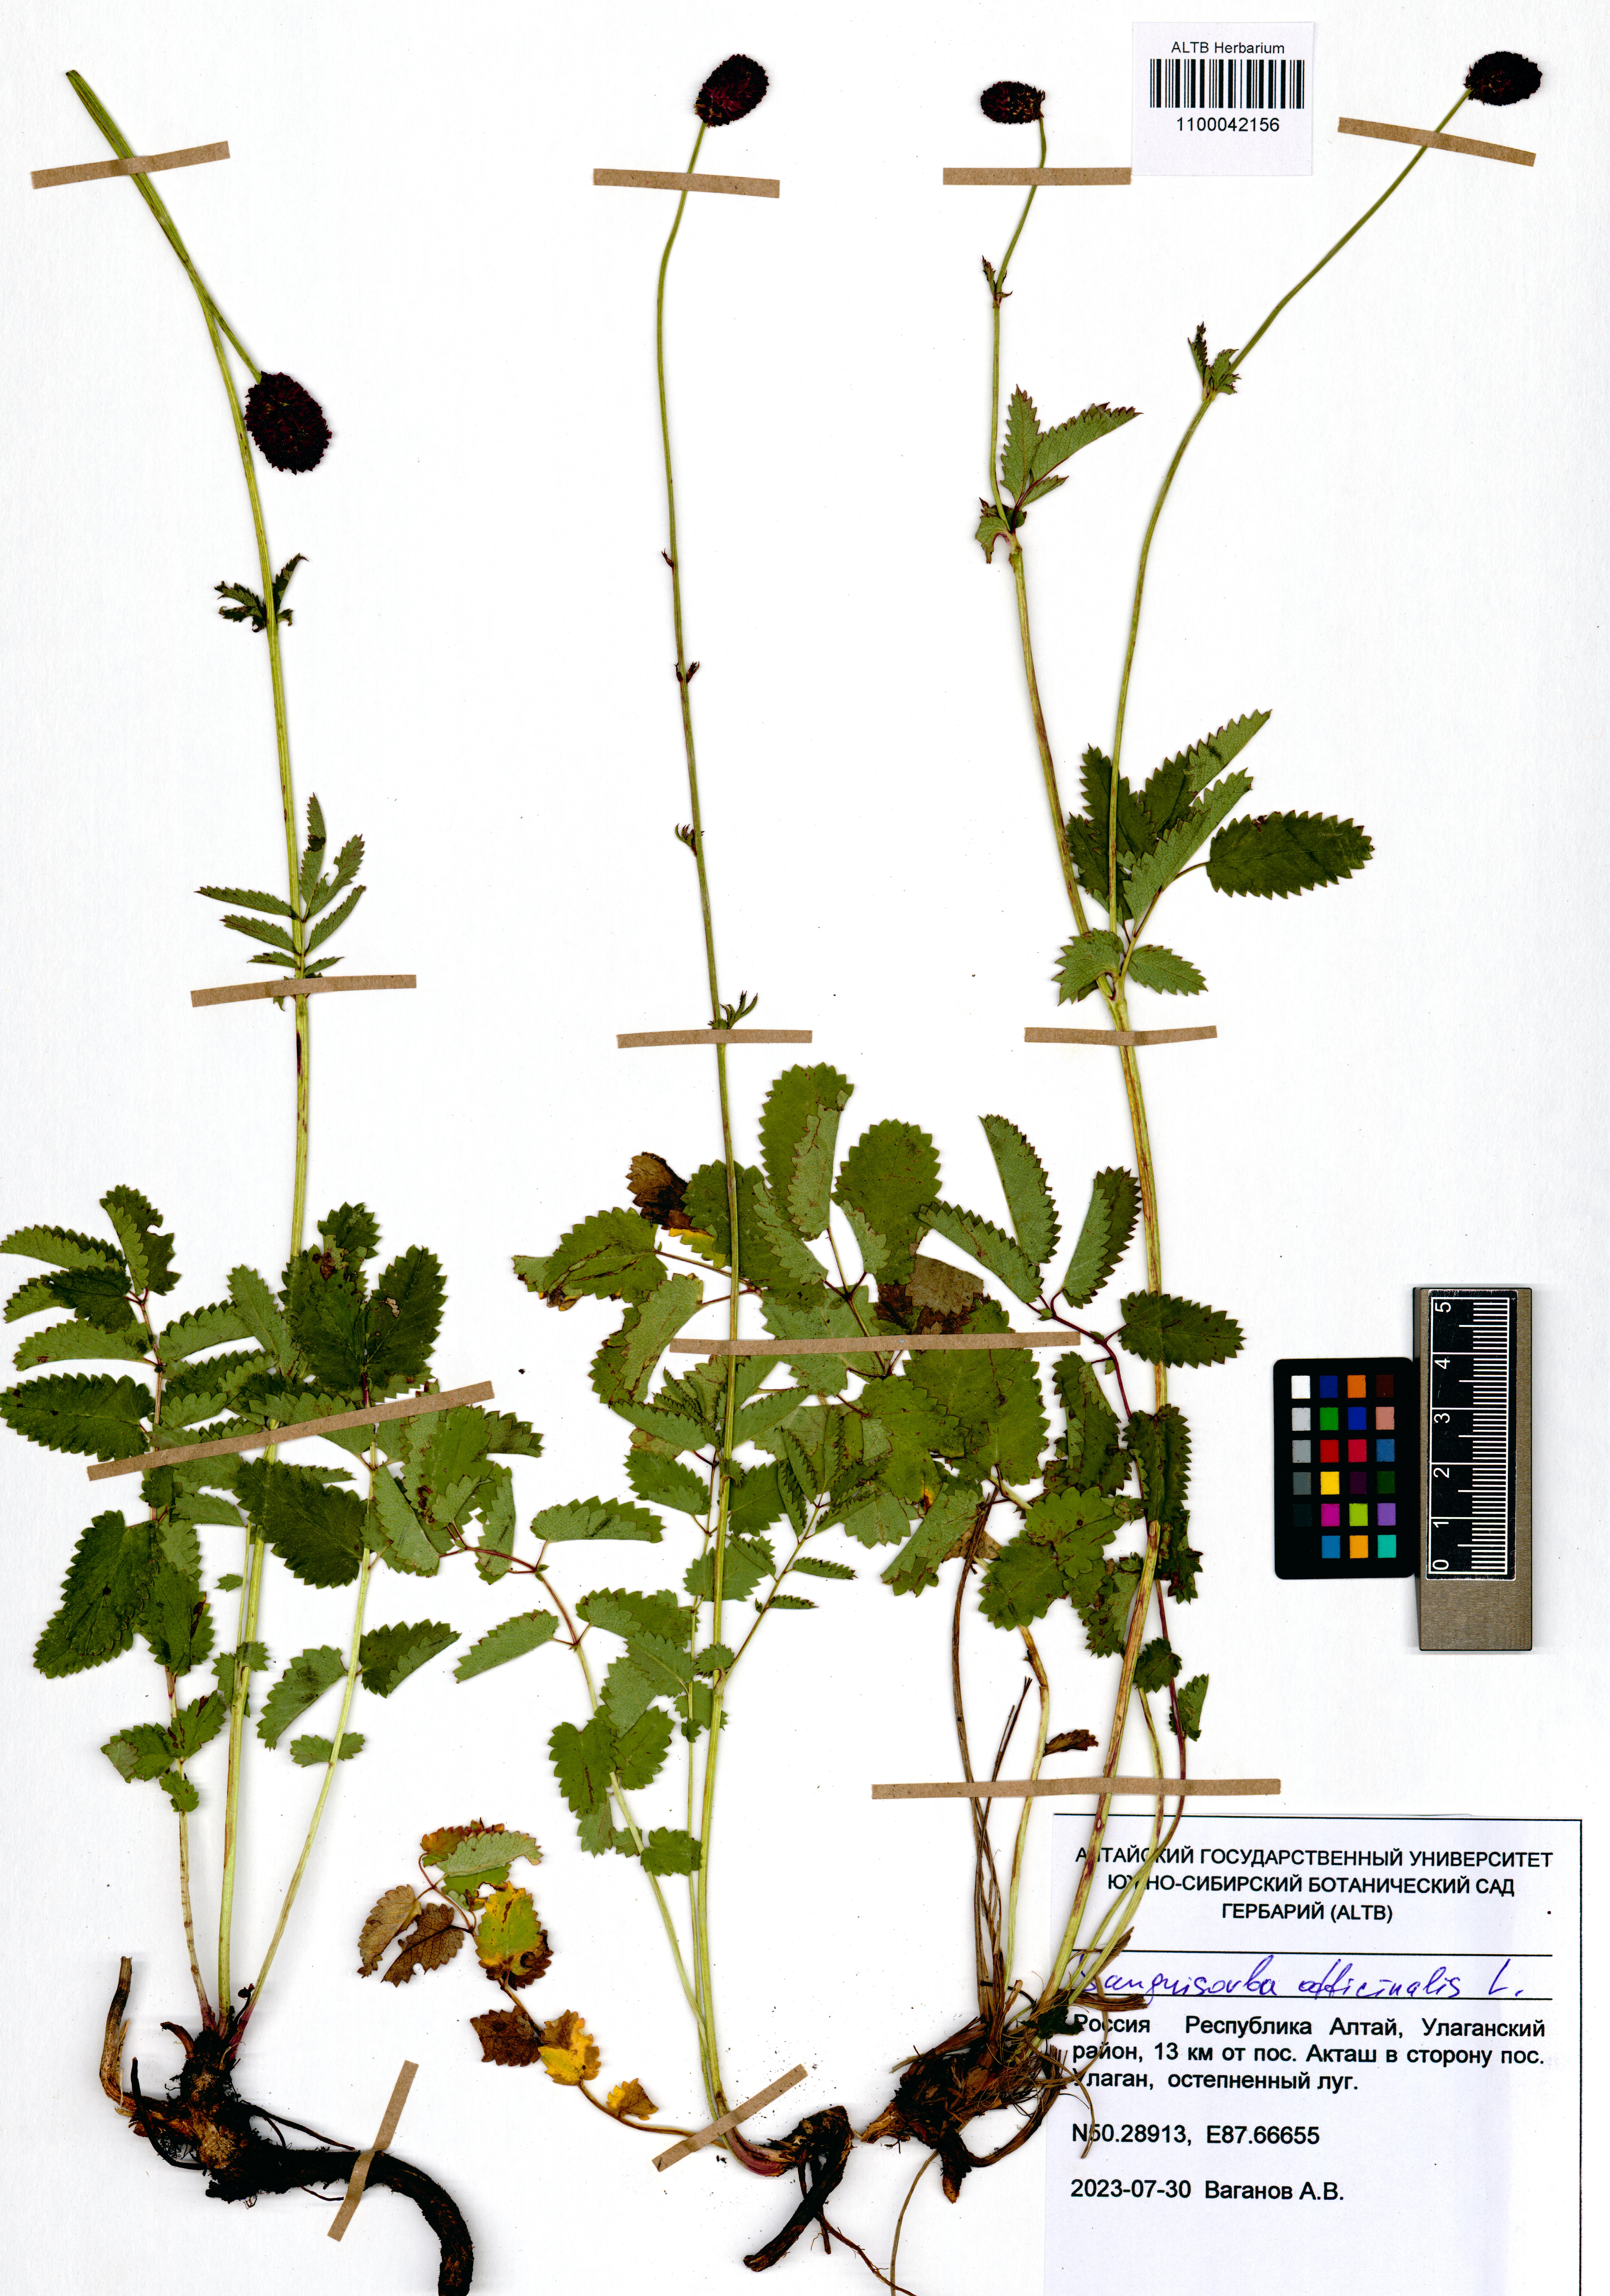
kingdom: Plantae
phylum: Tracheophyta
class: Magnoliopsida
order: Rosales
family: Rosaceae
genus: Sanguisorba
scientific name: Sanguisorba officinalis
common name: Great burnet
